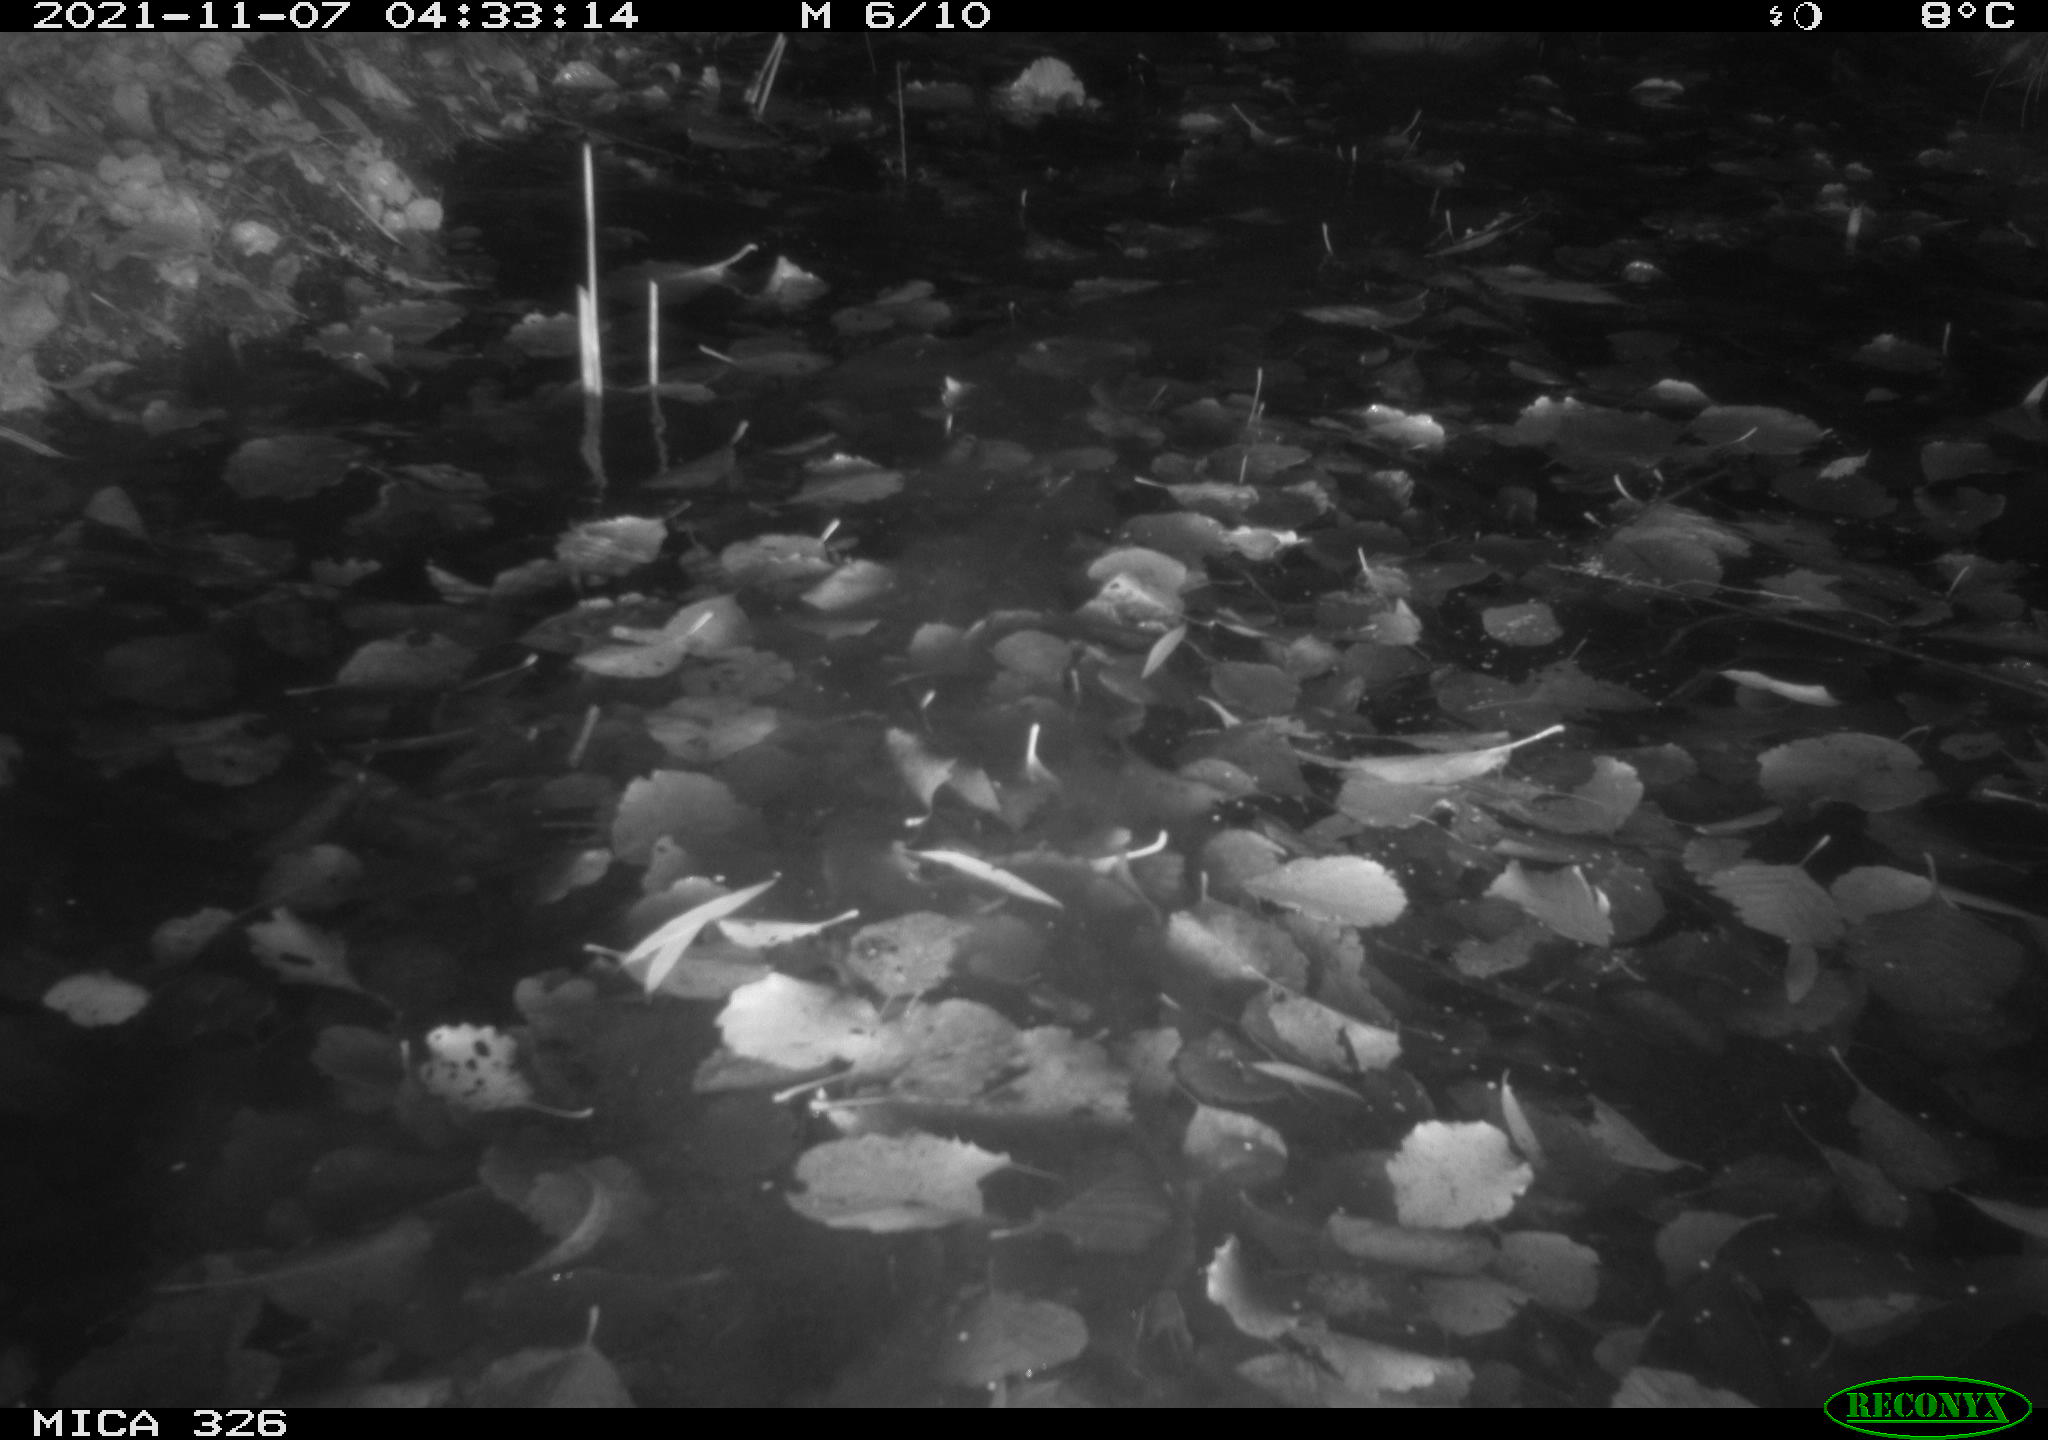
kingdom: Animalia
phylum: Chordata
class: Mammalia
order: Rodentia
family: Myocastoridae
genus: Myocastor
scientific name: Myocastor coypus
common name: Coypu
